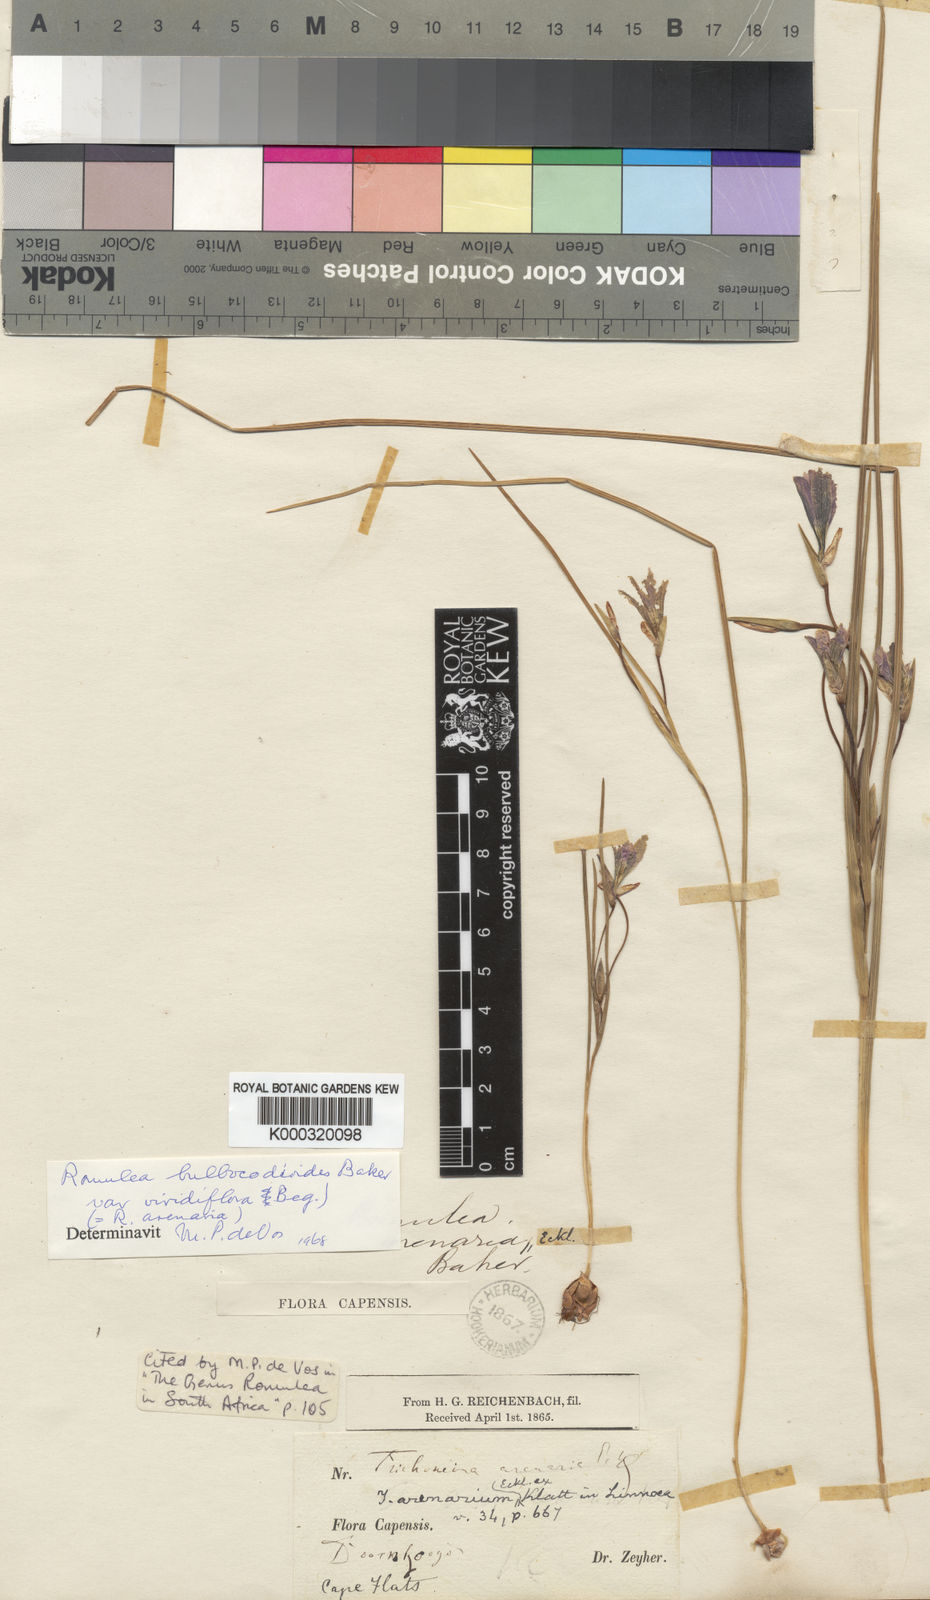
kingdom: Plantae
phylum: Tracheophyta
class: Liliopsida
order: Asparagales
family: Iridaceae
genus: Romulea
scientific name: Romulea flava
